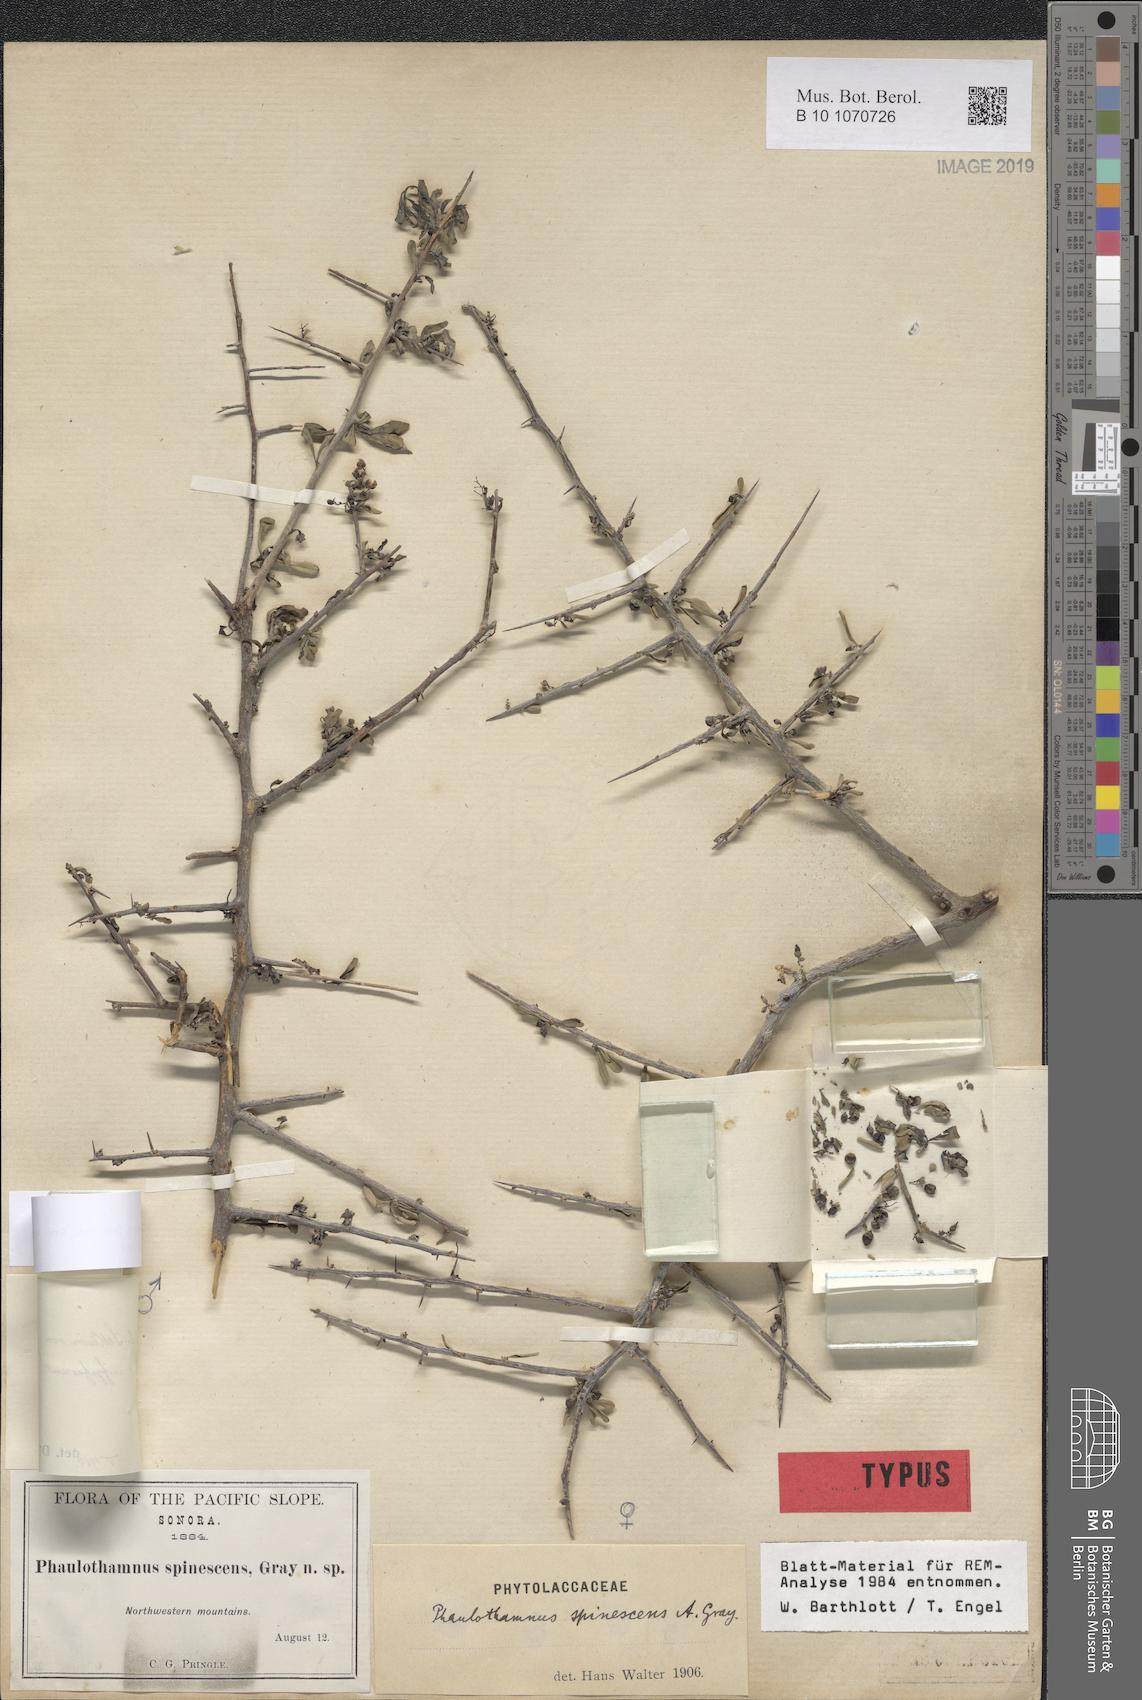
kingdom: Plantae
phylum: Tracheophyta
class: Magnoliopsida
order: Caryophyllales
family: Achatocarpaceae
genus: Phaulothamnus
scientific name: Phaulothamnus spinescens
